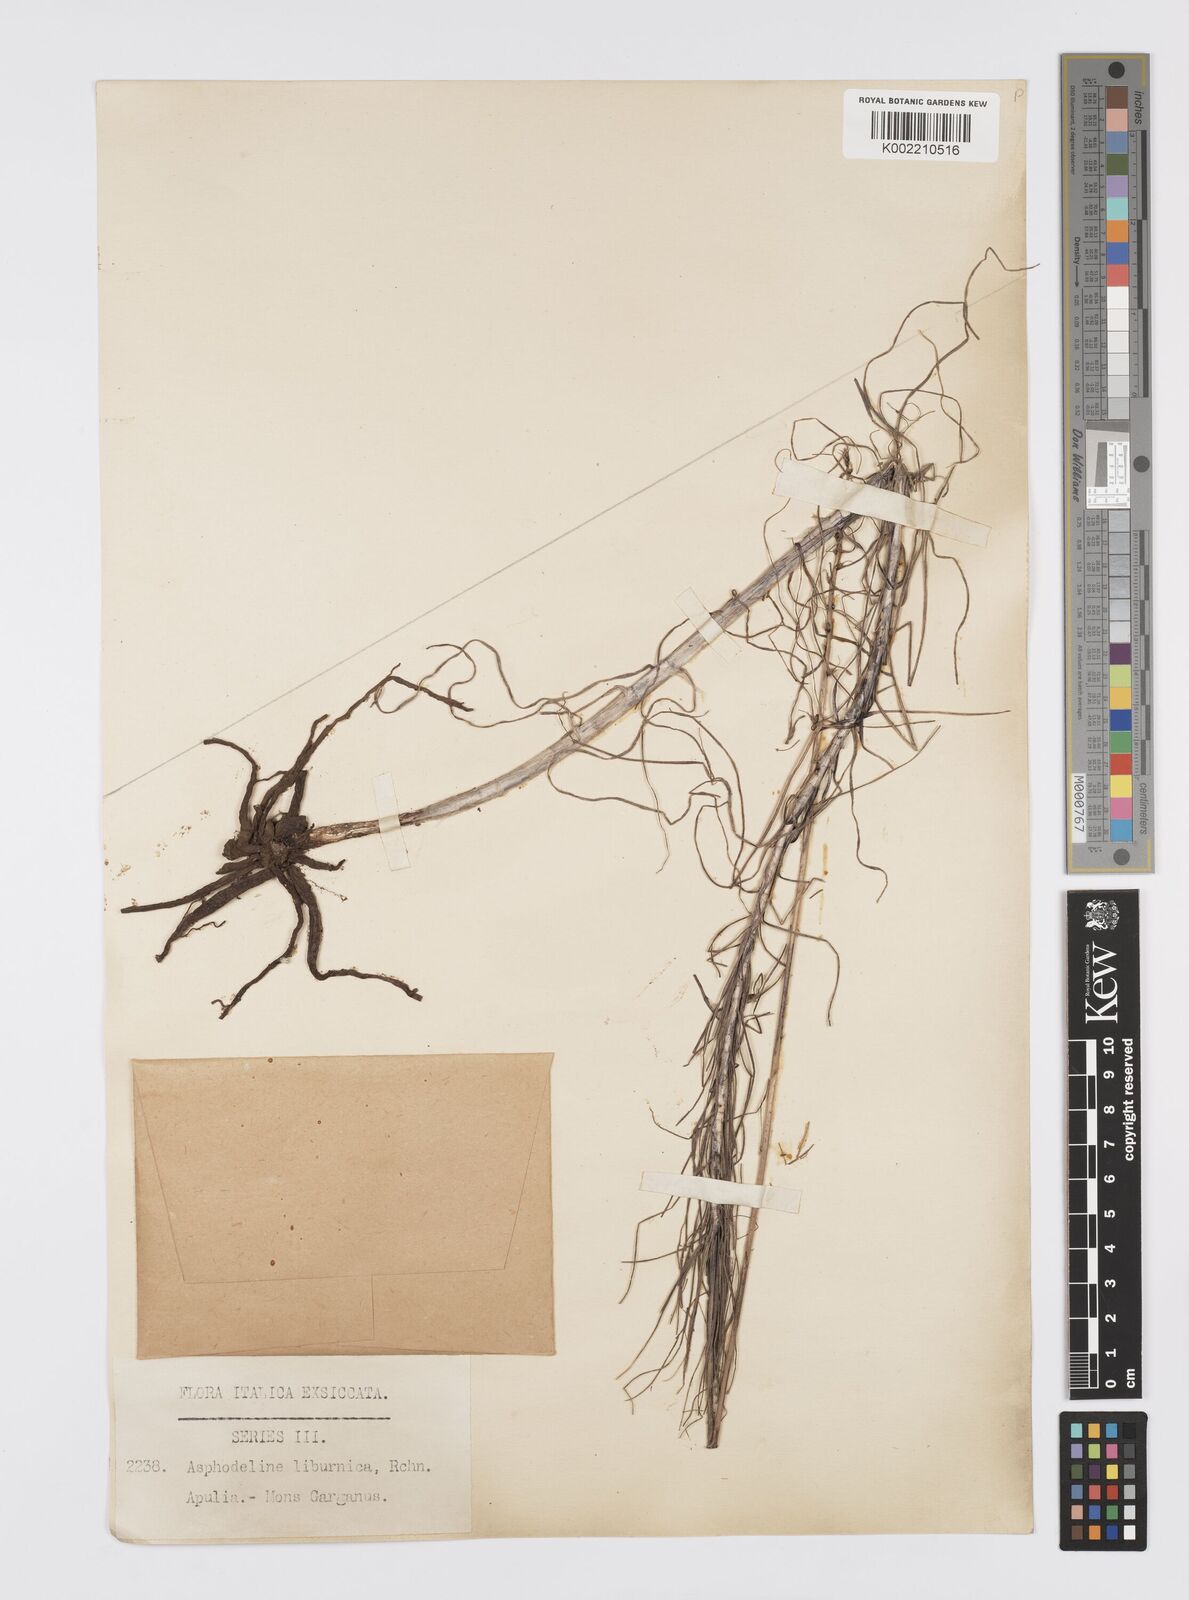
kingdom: Plantae
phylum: Tracheophyta
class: Liliopsida
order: Asparagales
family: Asphodelaceae
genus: Asphodeline
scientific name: Asphodeline liburnica
